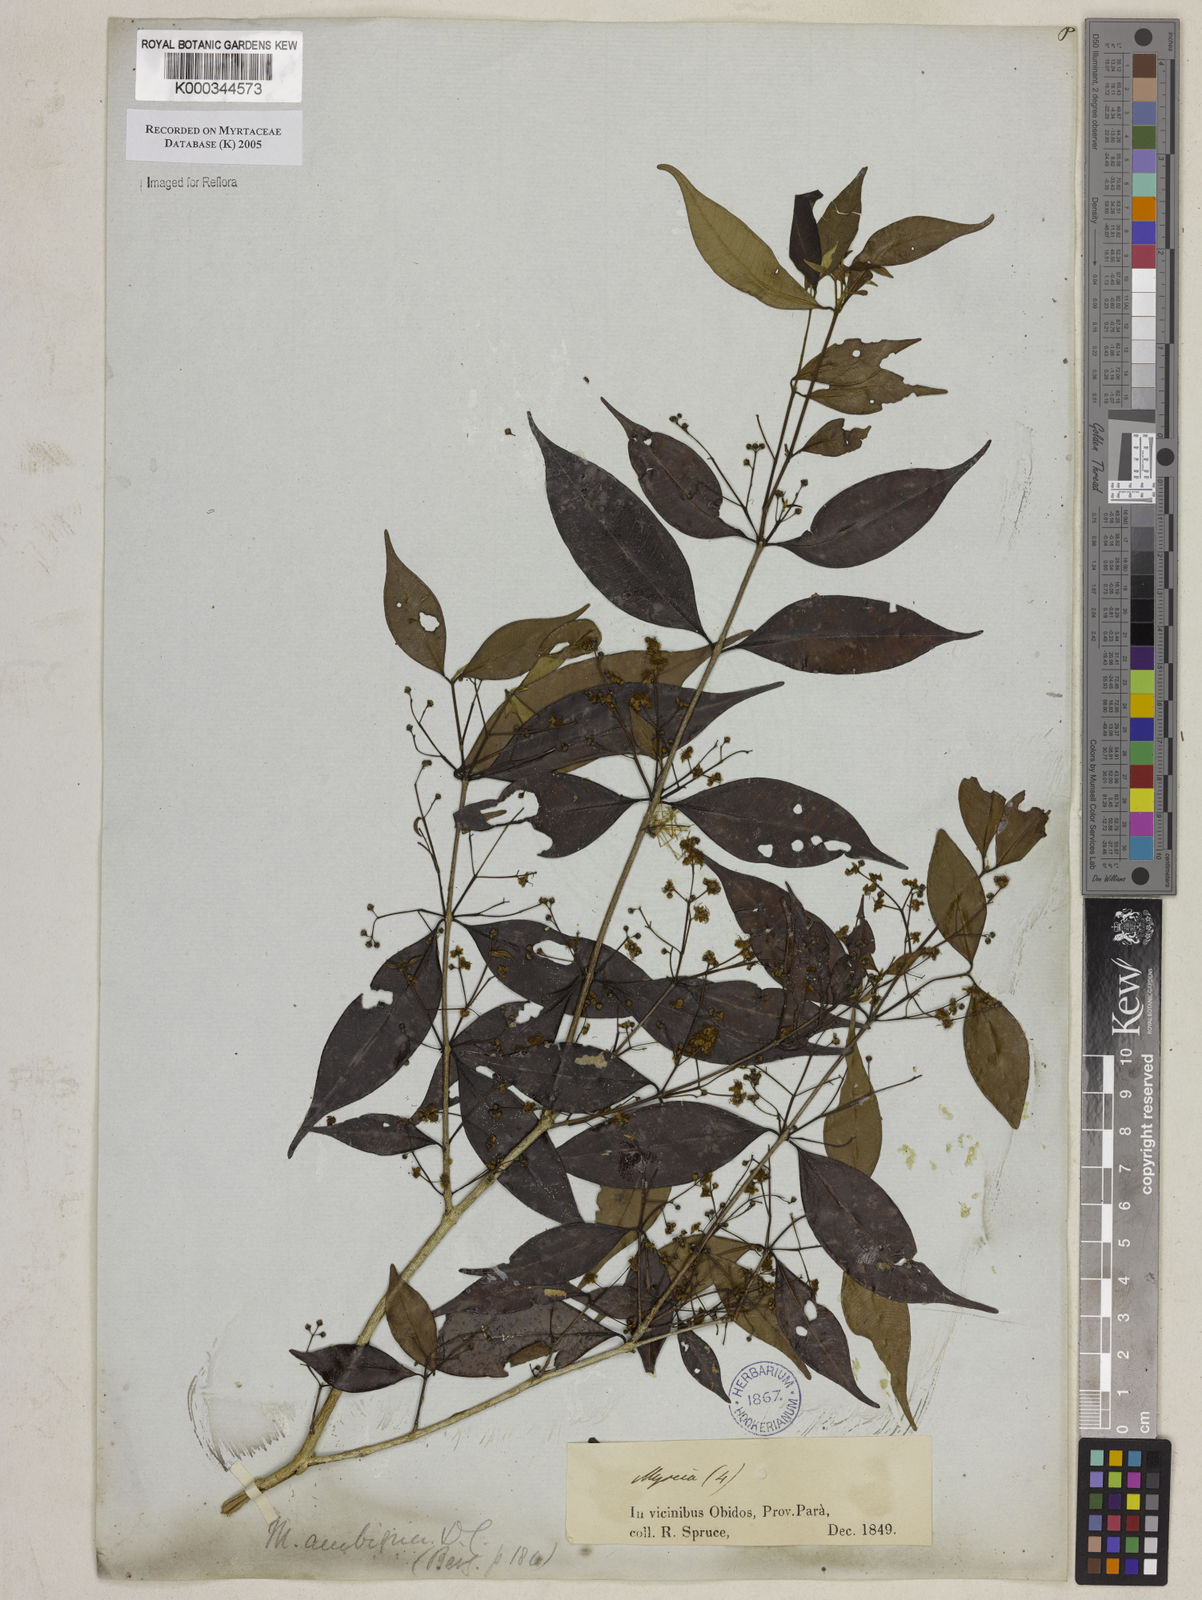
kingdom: Plantae
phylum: Tracheophyta
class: Magnoliopsida
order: Myrtales
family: Myrtaceae
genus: Myrcia
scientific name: Myrcia sylvatica
